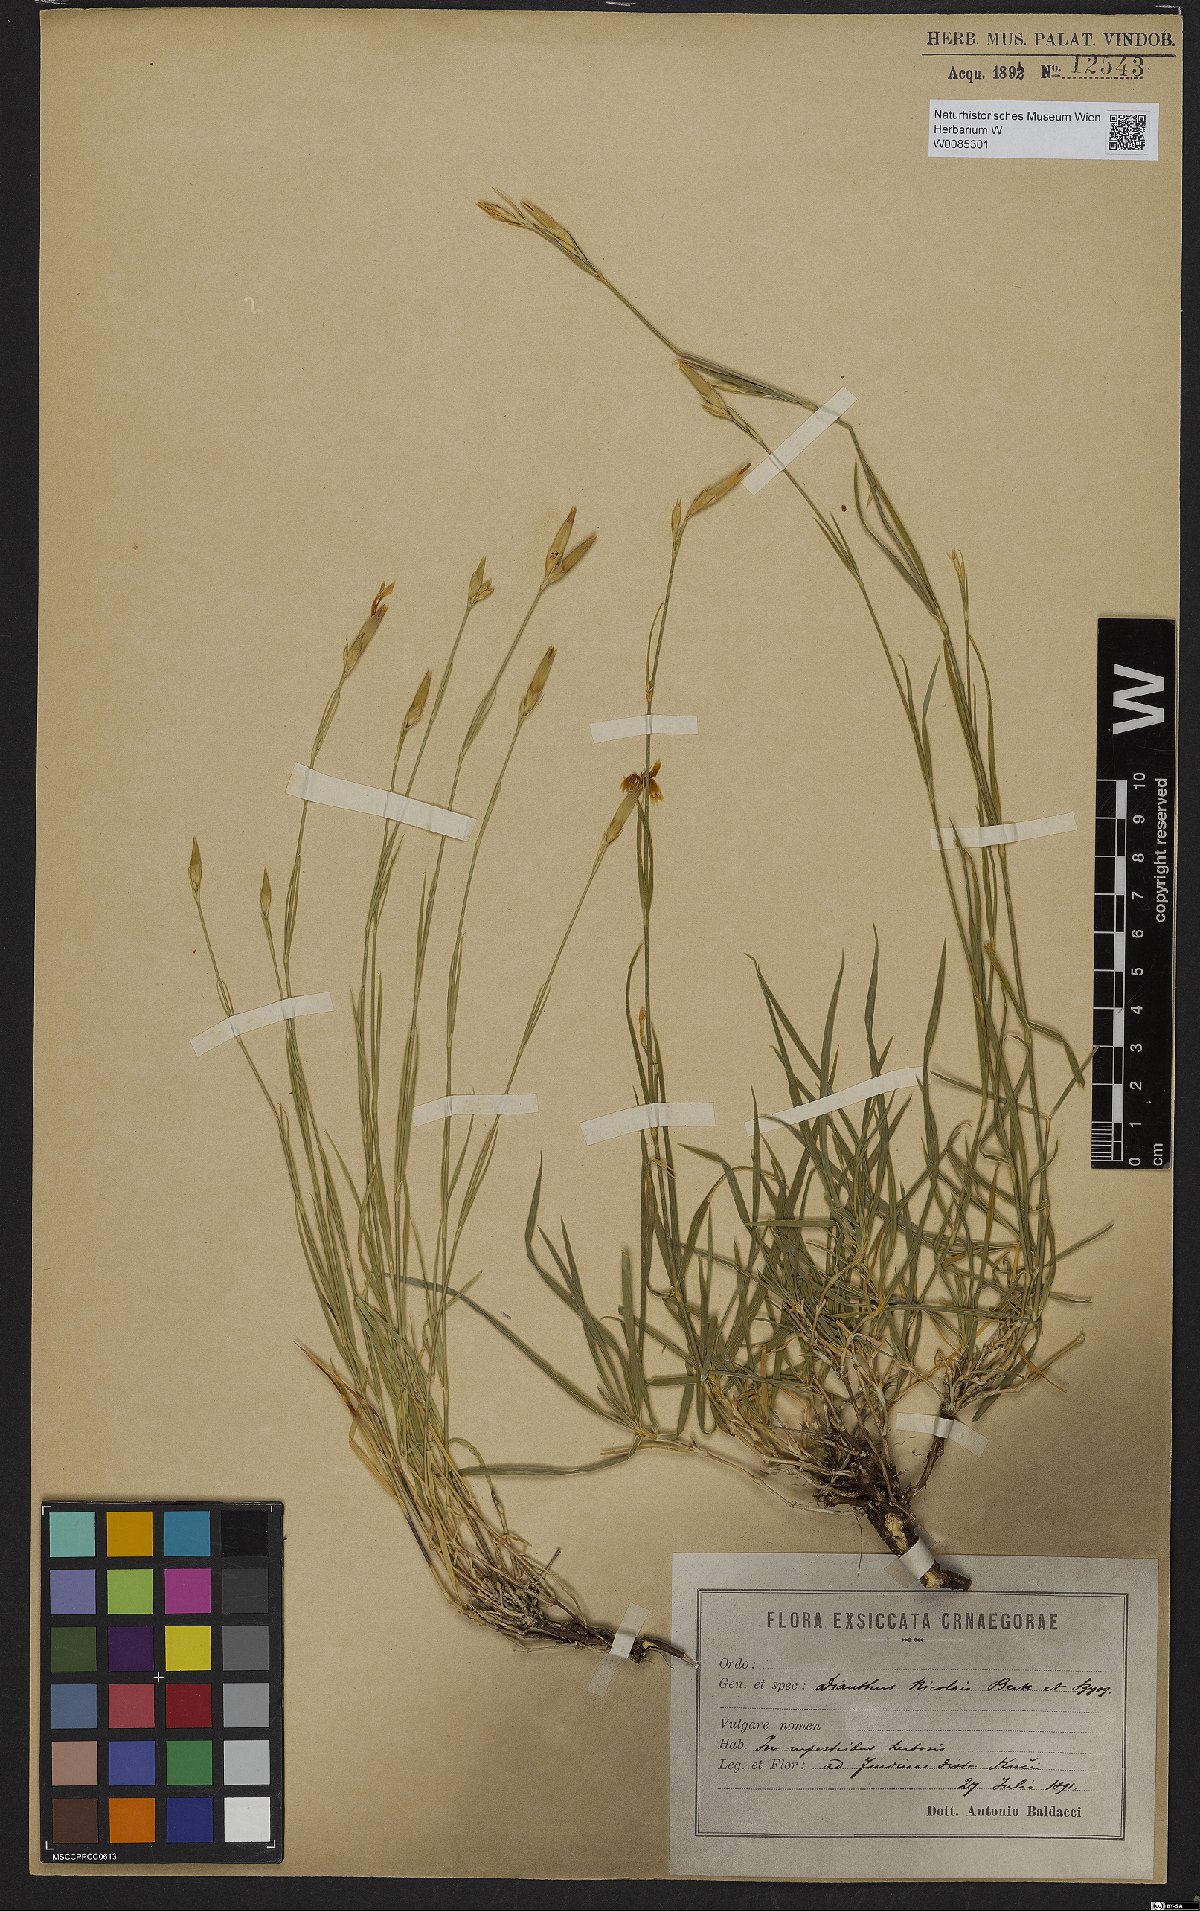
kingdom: Plantae
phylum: Tracheophyta
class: Magnoliopsida
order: Caryophyllales
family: Caryophyllaceae
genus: Dianthus
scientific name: Dianthus petraeus
